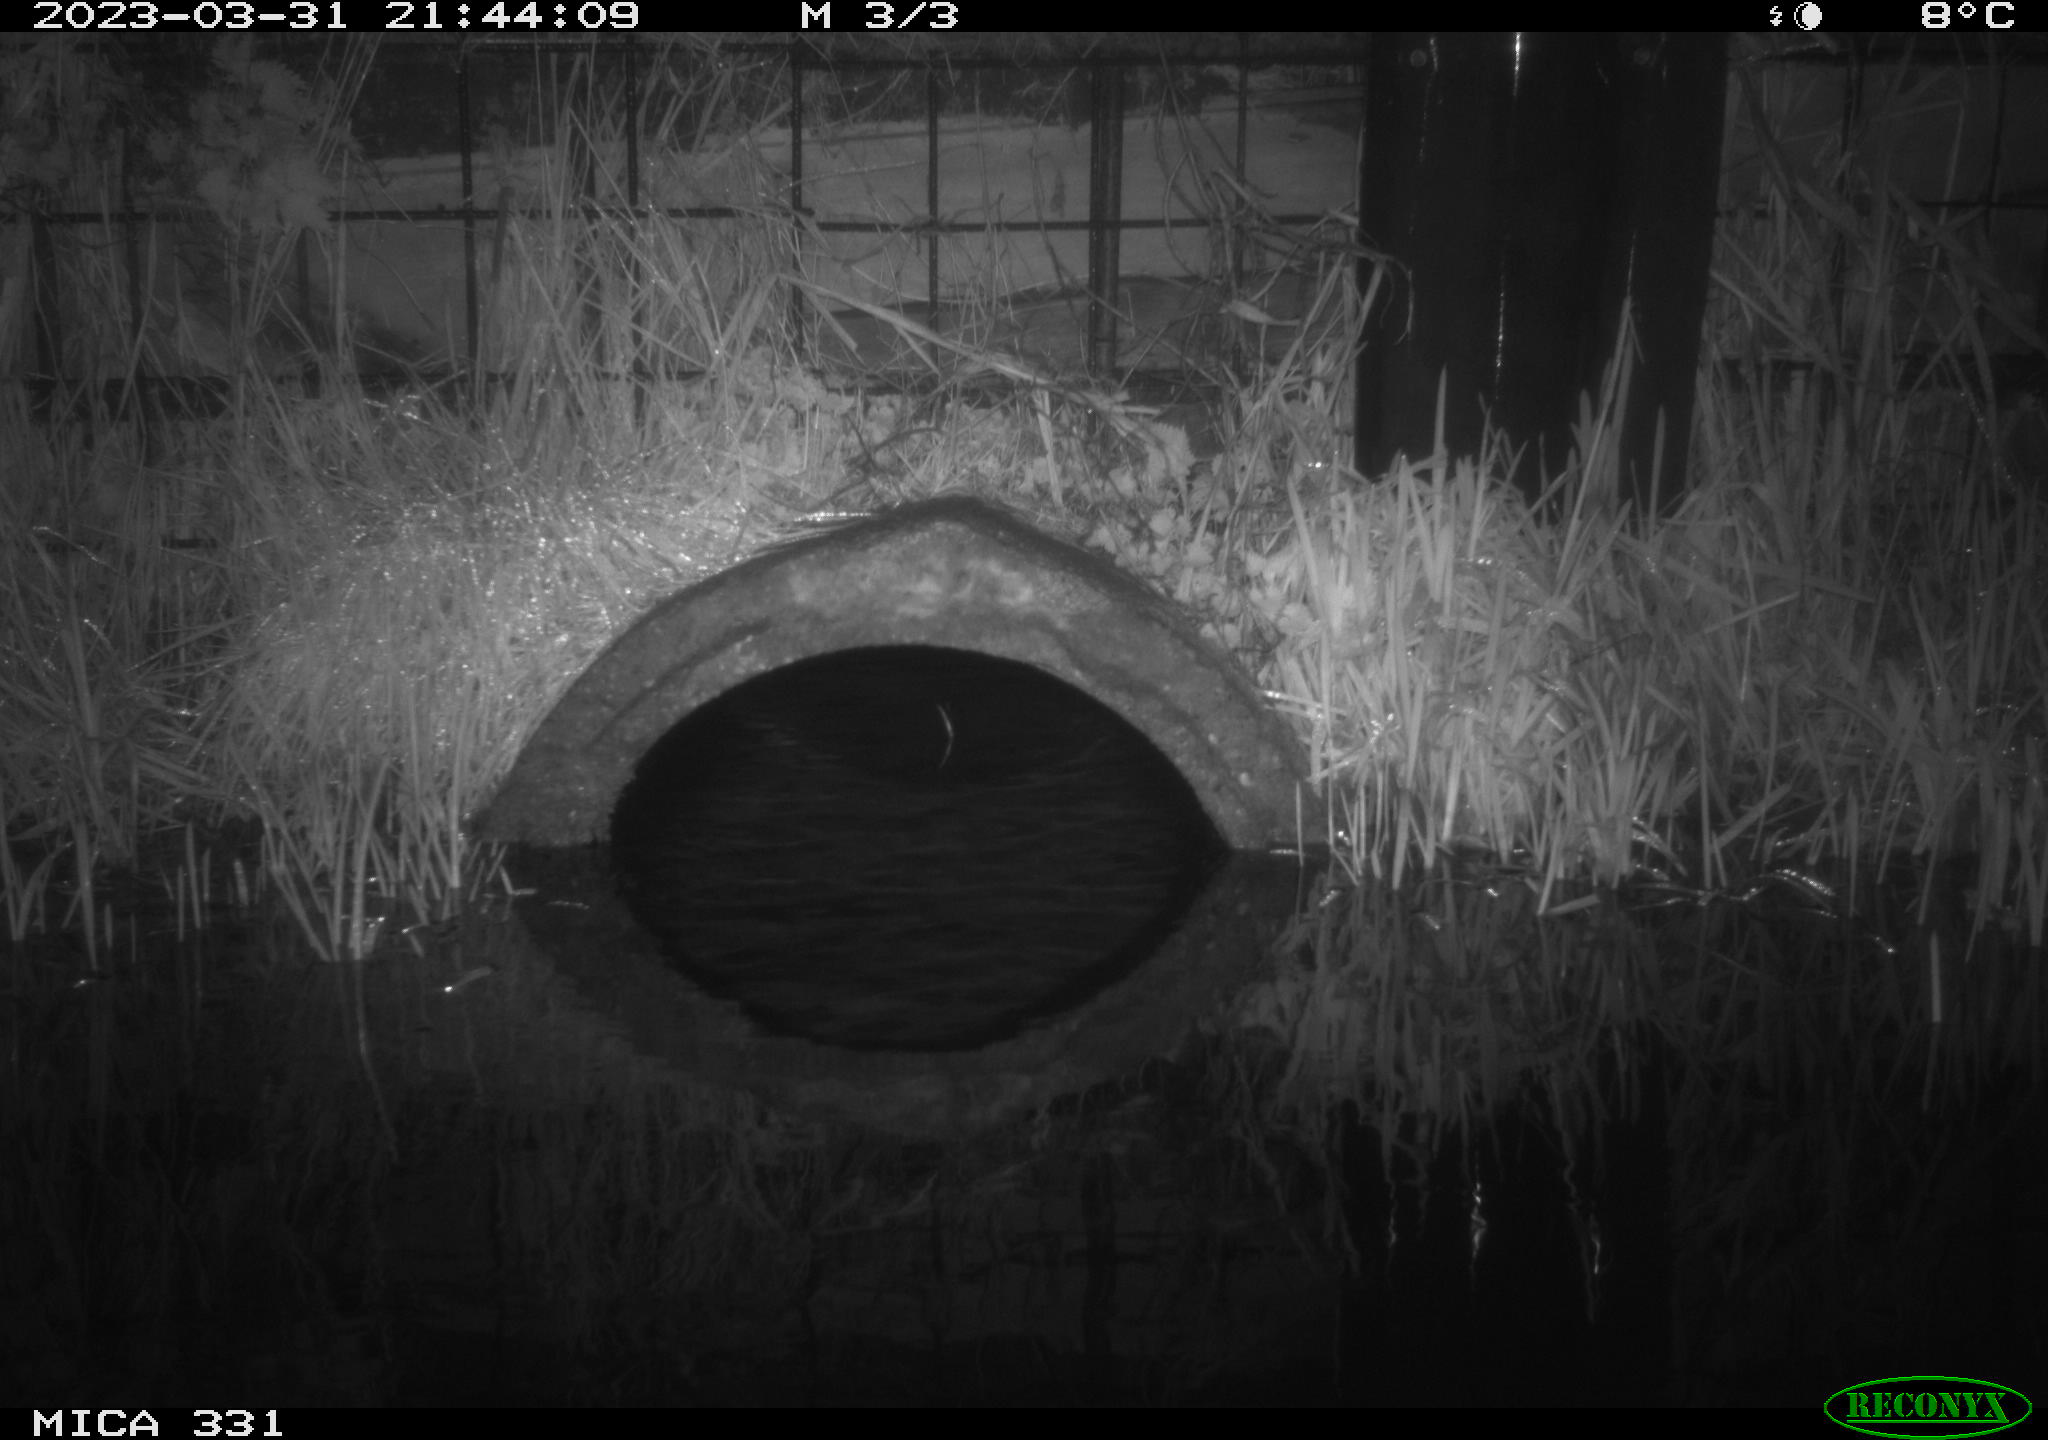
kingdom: Animalia
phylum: Chordata
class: Mammalia
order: Rodentia
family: Muridae
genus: Rattus
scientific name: Rattus norvegicus
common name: Brown rat
